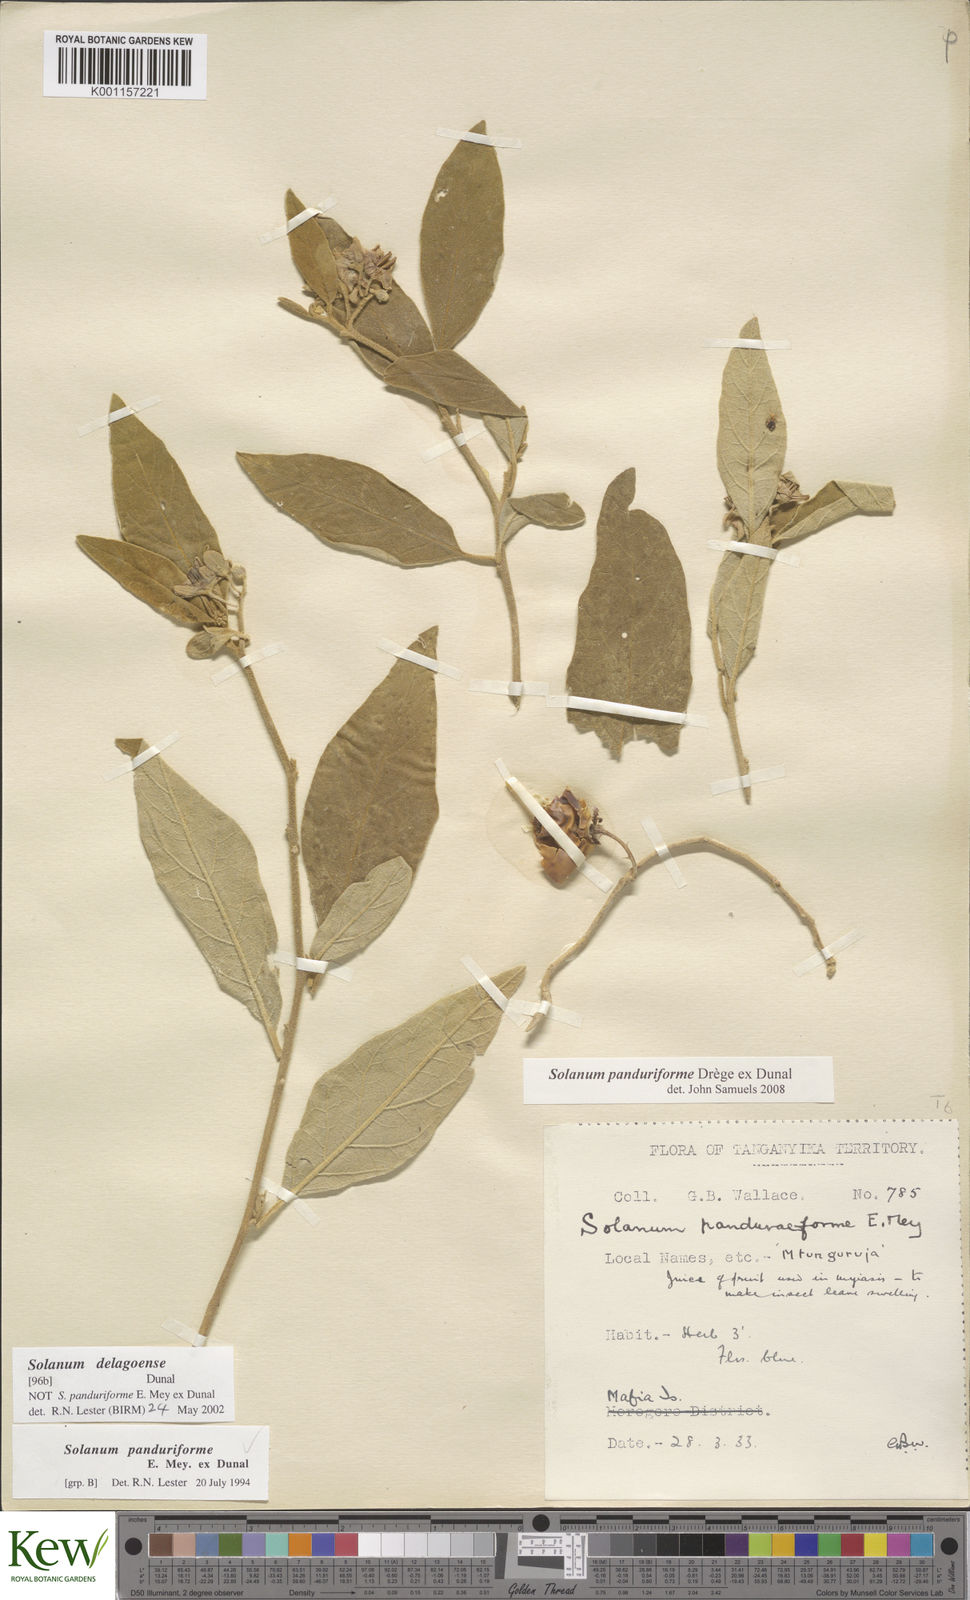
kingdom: Plantae
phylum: Tracheophyta
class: Magnoliopsida
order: Solanales
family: Solanaceae
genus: Solanum
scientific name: Solanum campylacanthum
